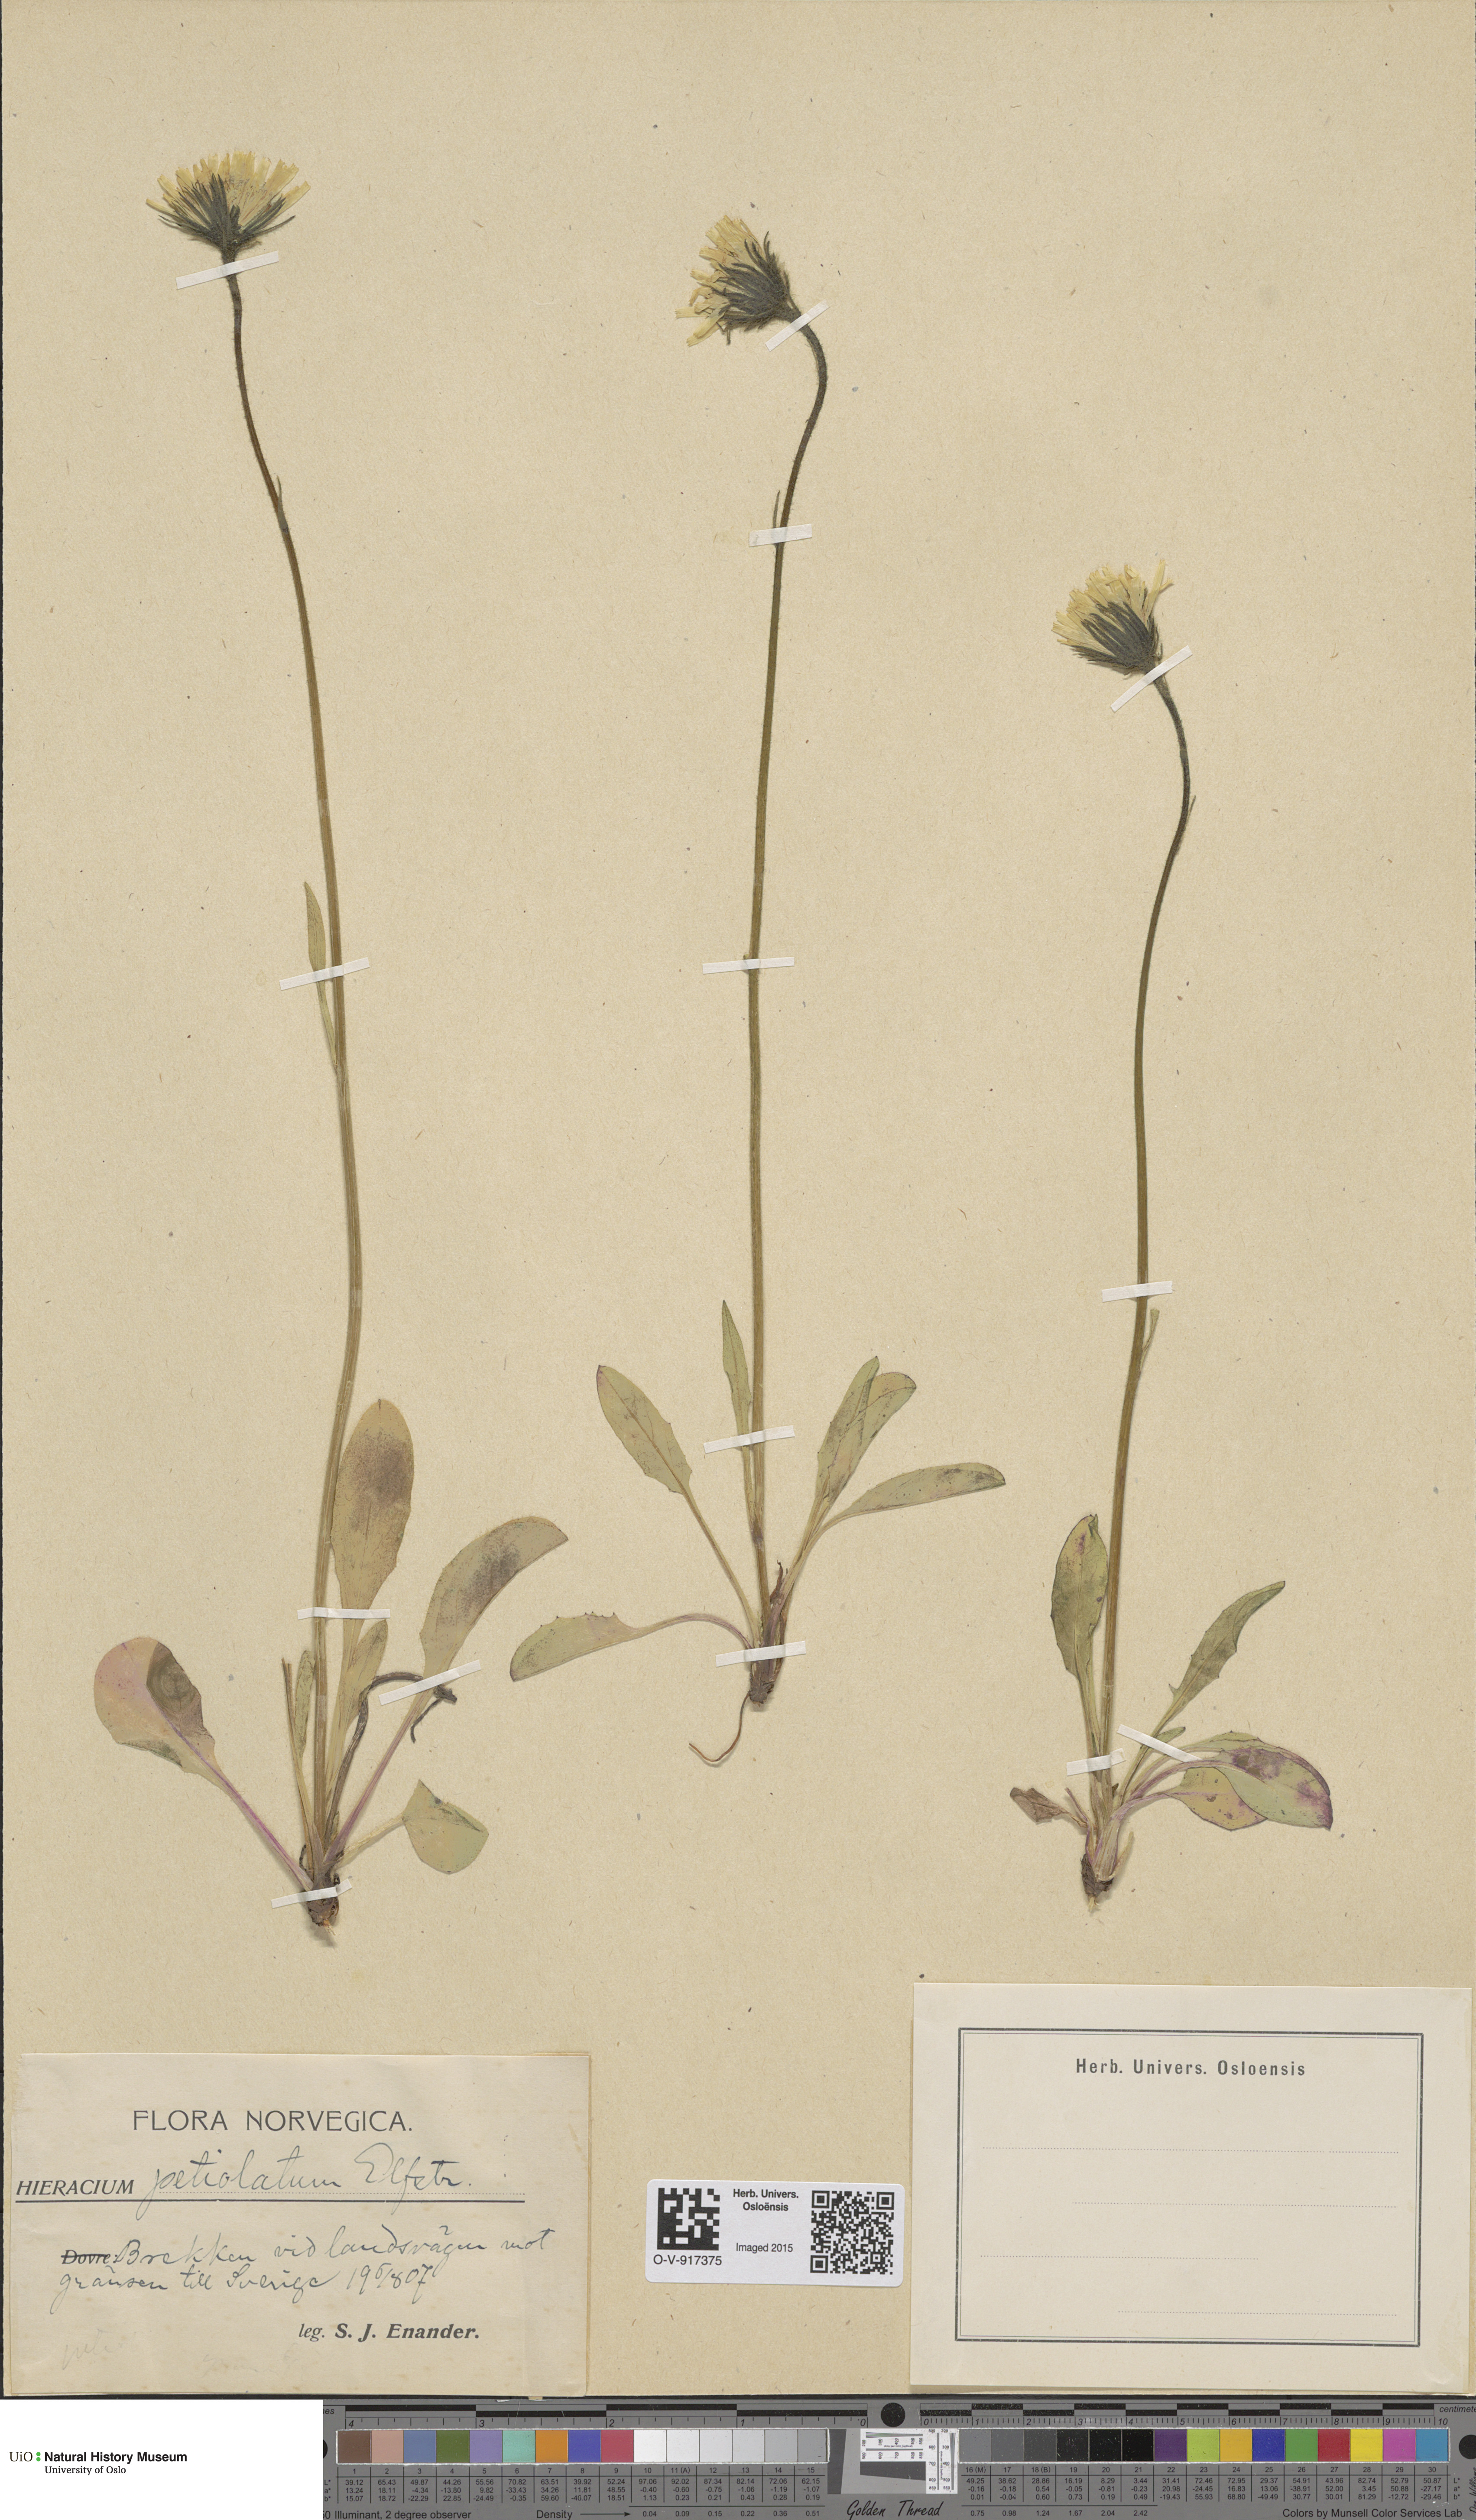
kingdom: Plantae
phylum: Tracheophyta
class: Magnoliopsida
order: Asterales
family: Asteraceae
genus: Hieracium
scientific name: Hieracium alpinum
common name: Alpine hawkweed
